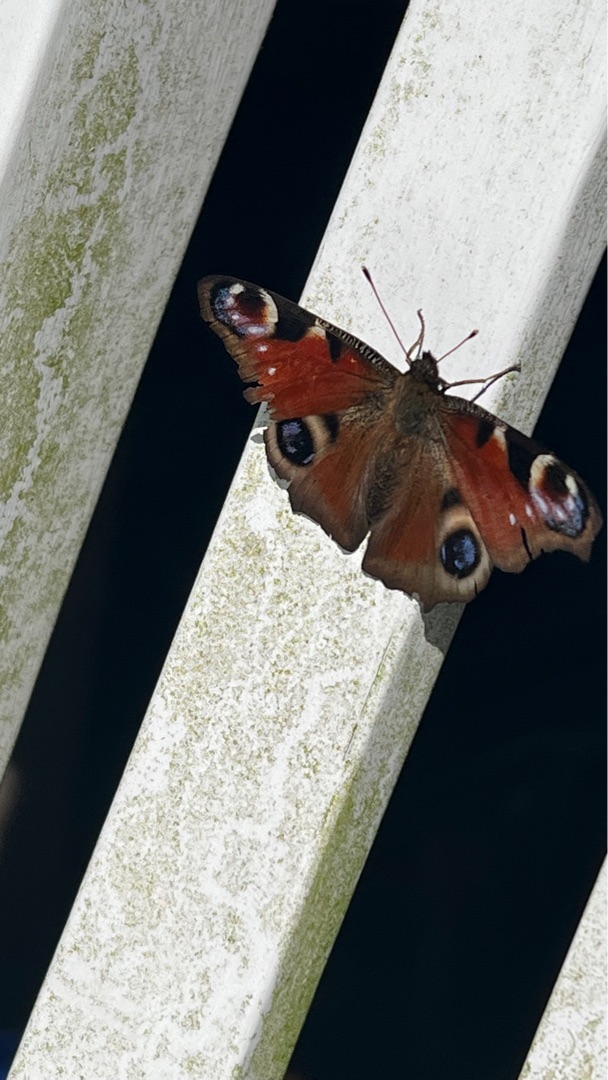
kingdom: Animalia
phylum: Arthropoda
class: Insecta
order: Lepidoptera
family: Nymphalidae
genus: Aglais
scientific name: Aglais io
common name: Dagpåfugleøje
